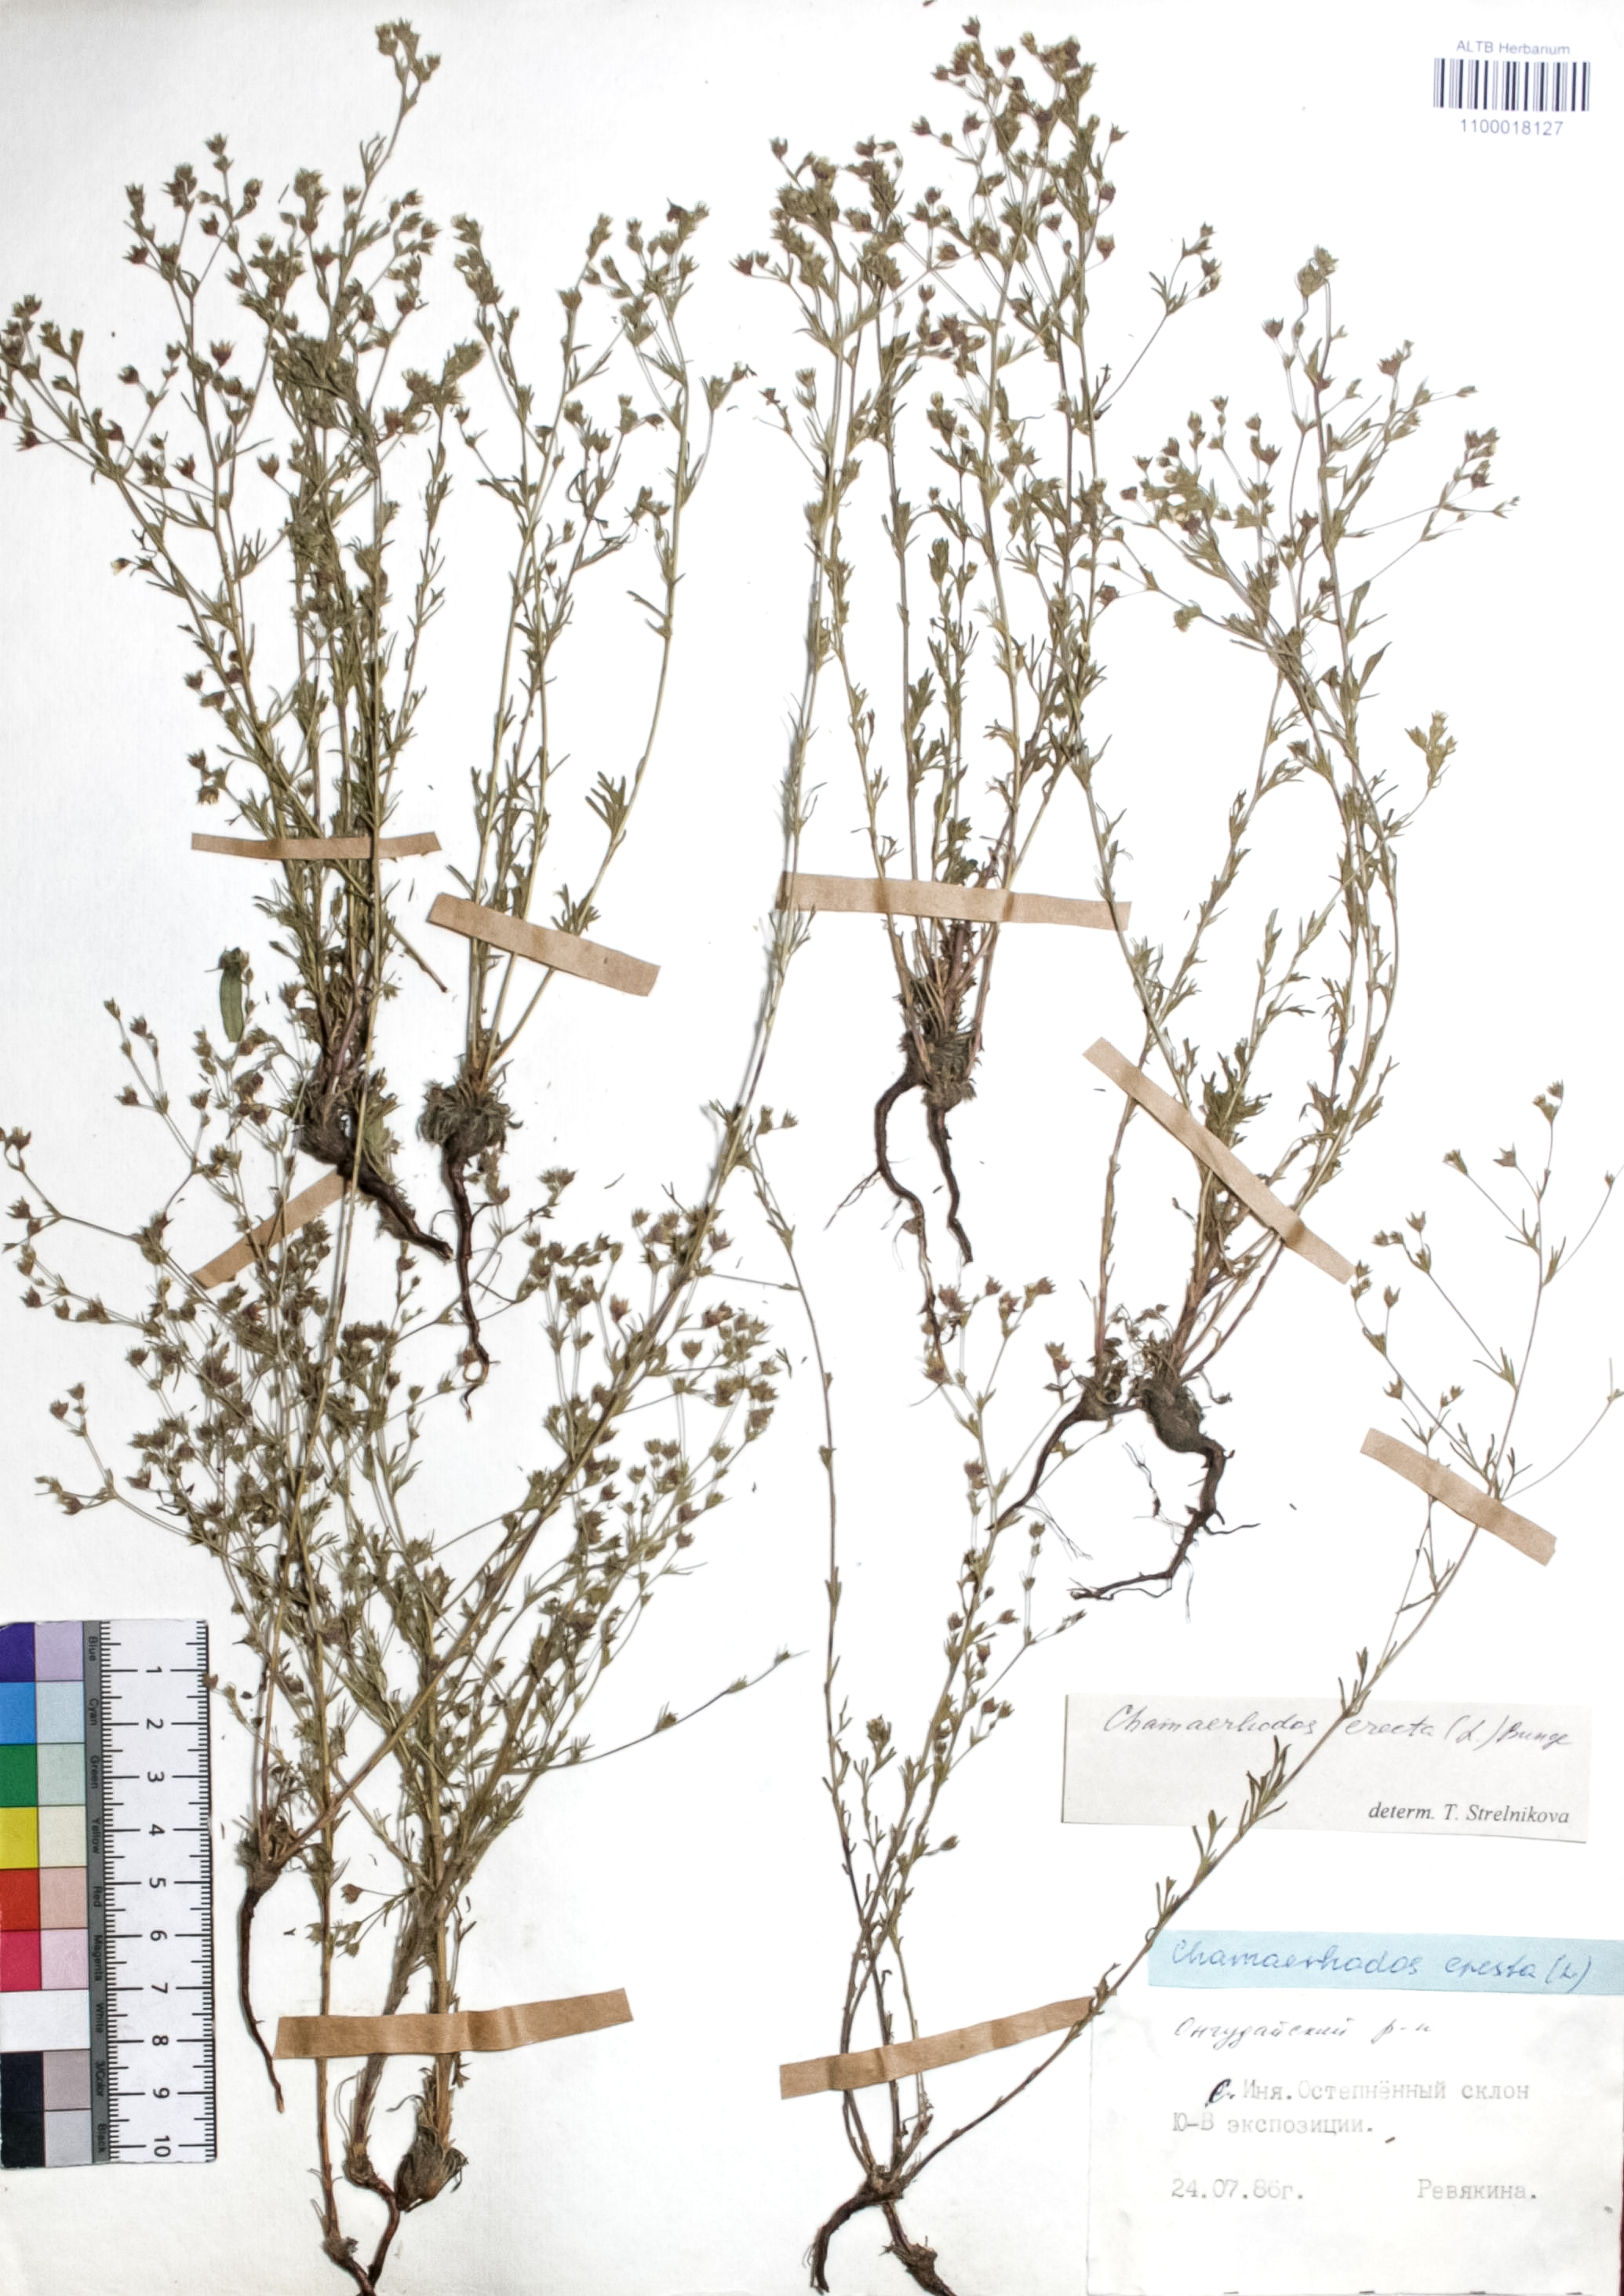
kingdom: Plantae
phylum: Tracheophyta
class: Magnoliopsida
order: Rosales
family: Rosaceae
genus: Chamaerhodos
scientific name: Chamaerhodos erecta
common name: American chamaerhodos
